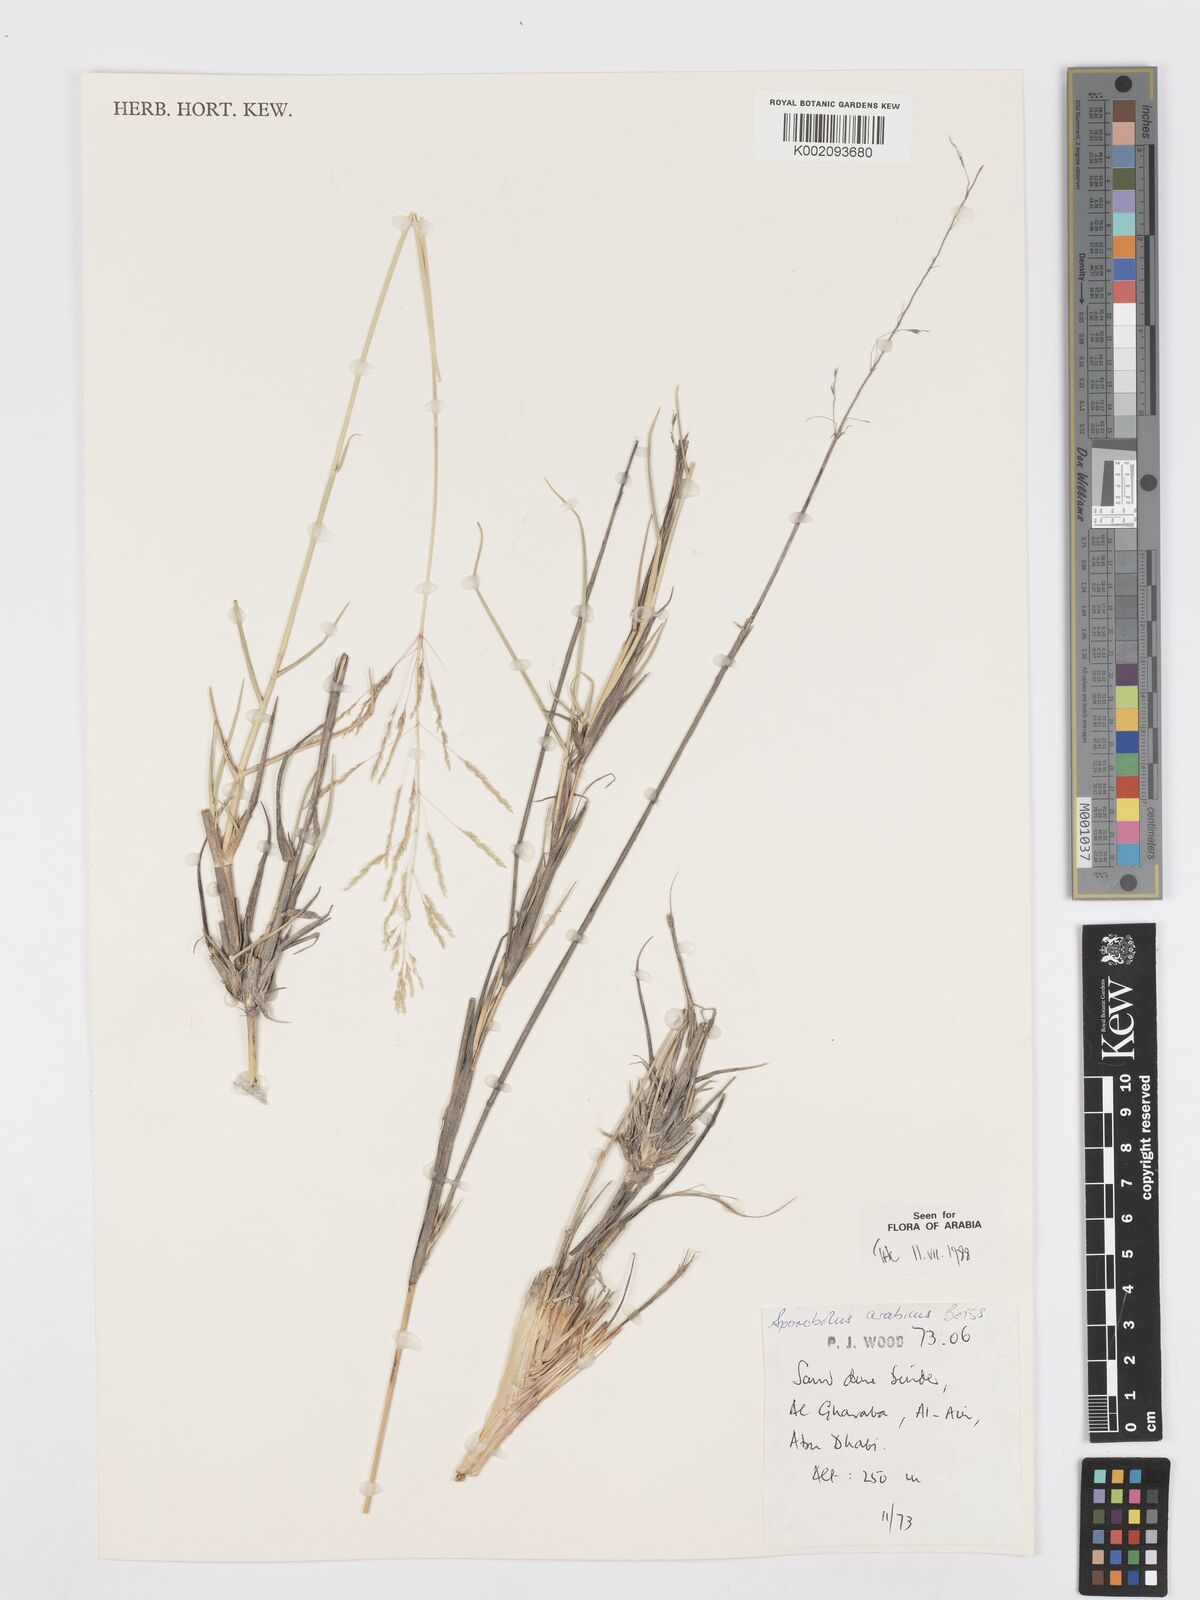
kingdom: Plantae
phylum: Tracheophyta
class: Liliopsida
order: Poales
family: Poaceae
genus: Sporobolus
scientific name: Sporobolus ioclados
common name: Pan dropseed
